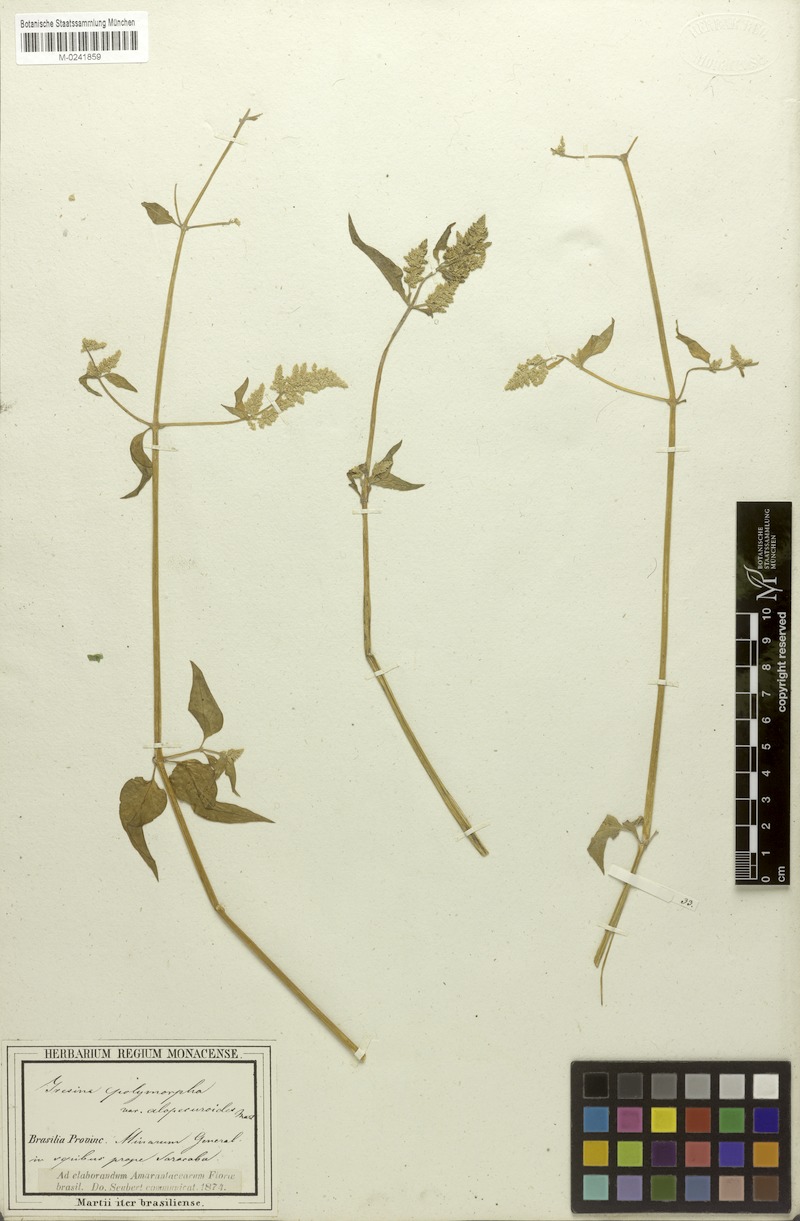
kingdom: Plantae
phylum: Tracheophyta
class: Magnoliopsida
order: Caryophyllales
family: Amaranthaceae
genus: Iresine
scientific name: Iresine diffusa
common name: Juba's-bush
